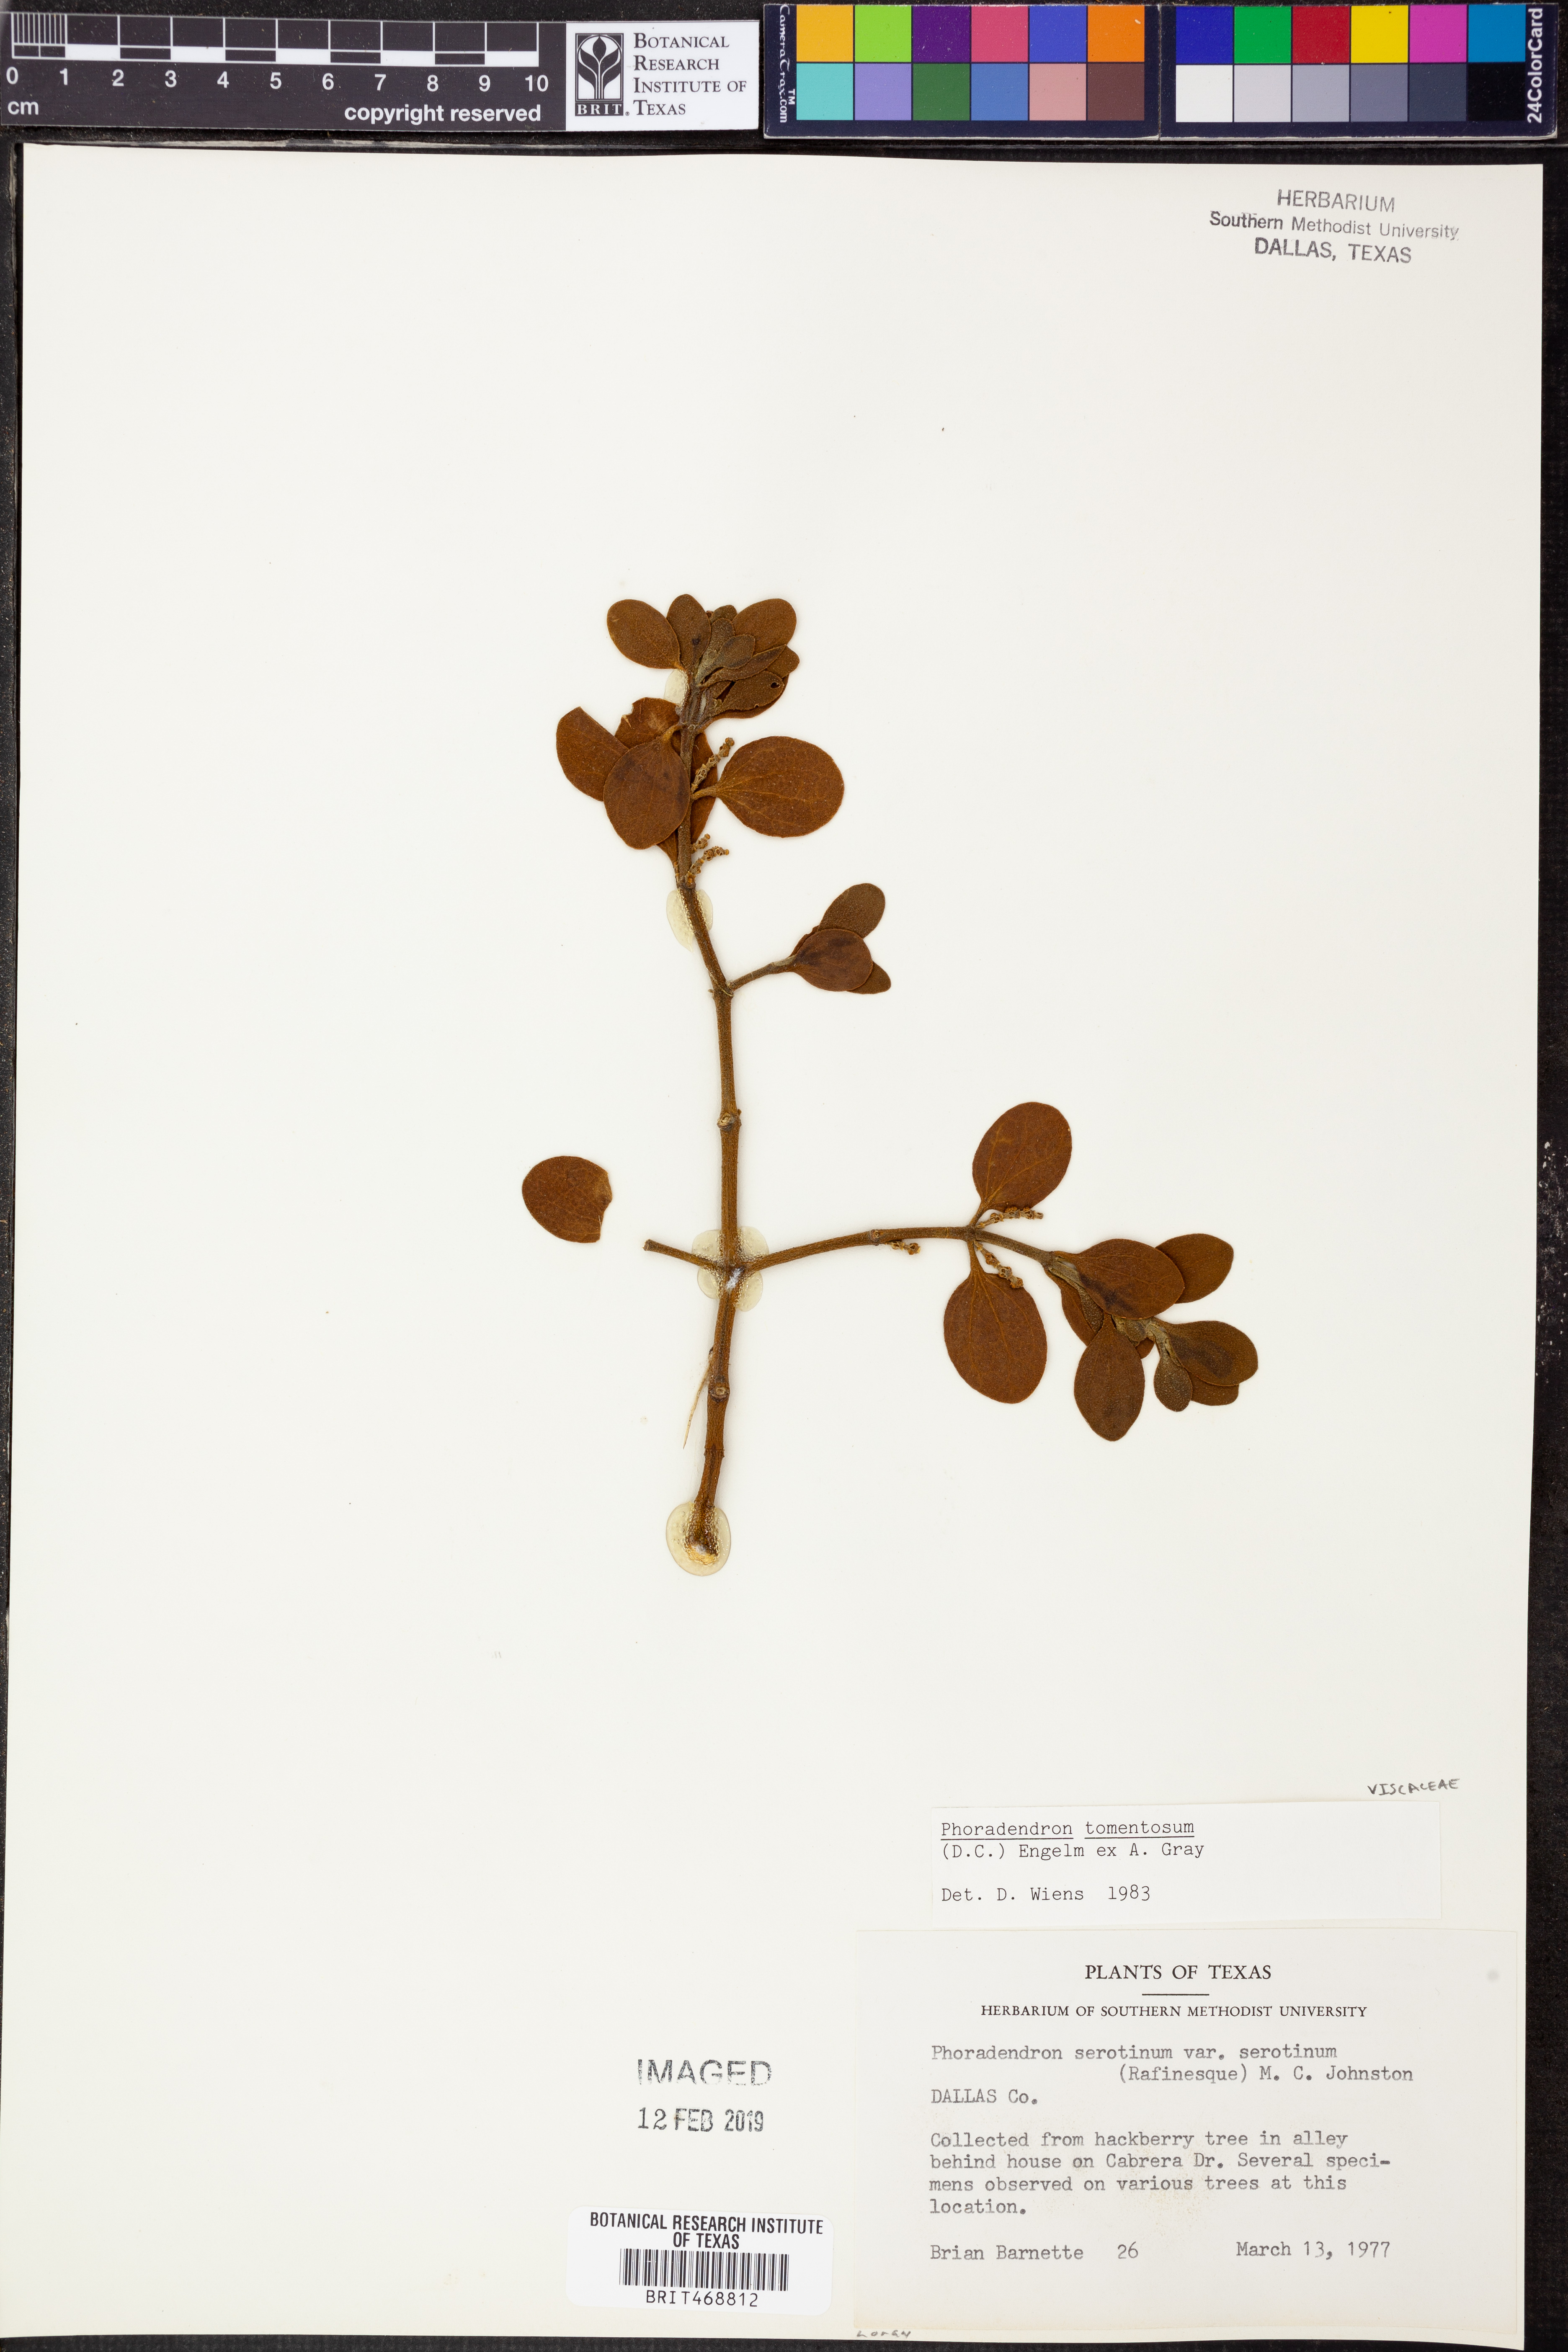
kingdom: Plantae
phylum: Tracheophyta
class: Magnoliopsida
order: Santalales
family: Viscaceae
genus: Phoradendron
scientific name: Phoradendron leucarpum
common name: Pacific mistletoe
